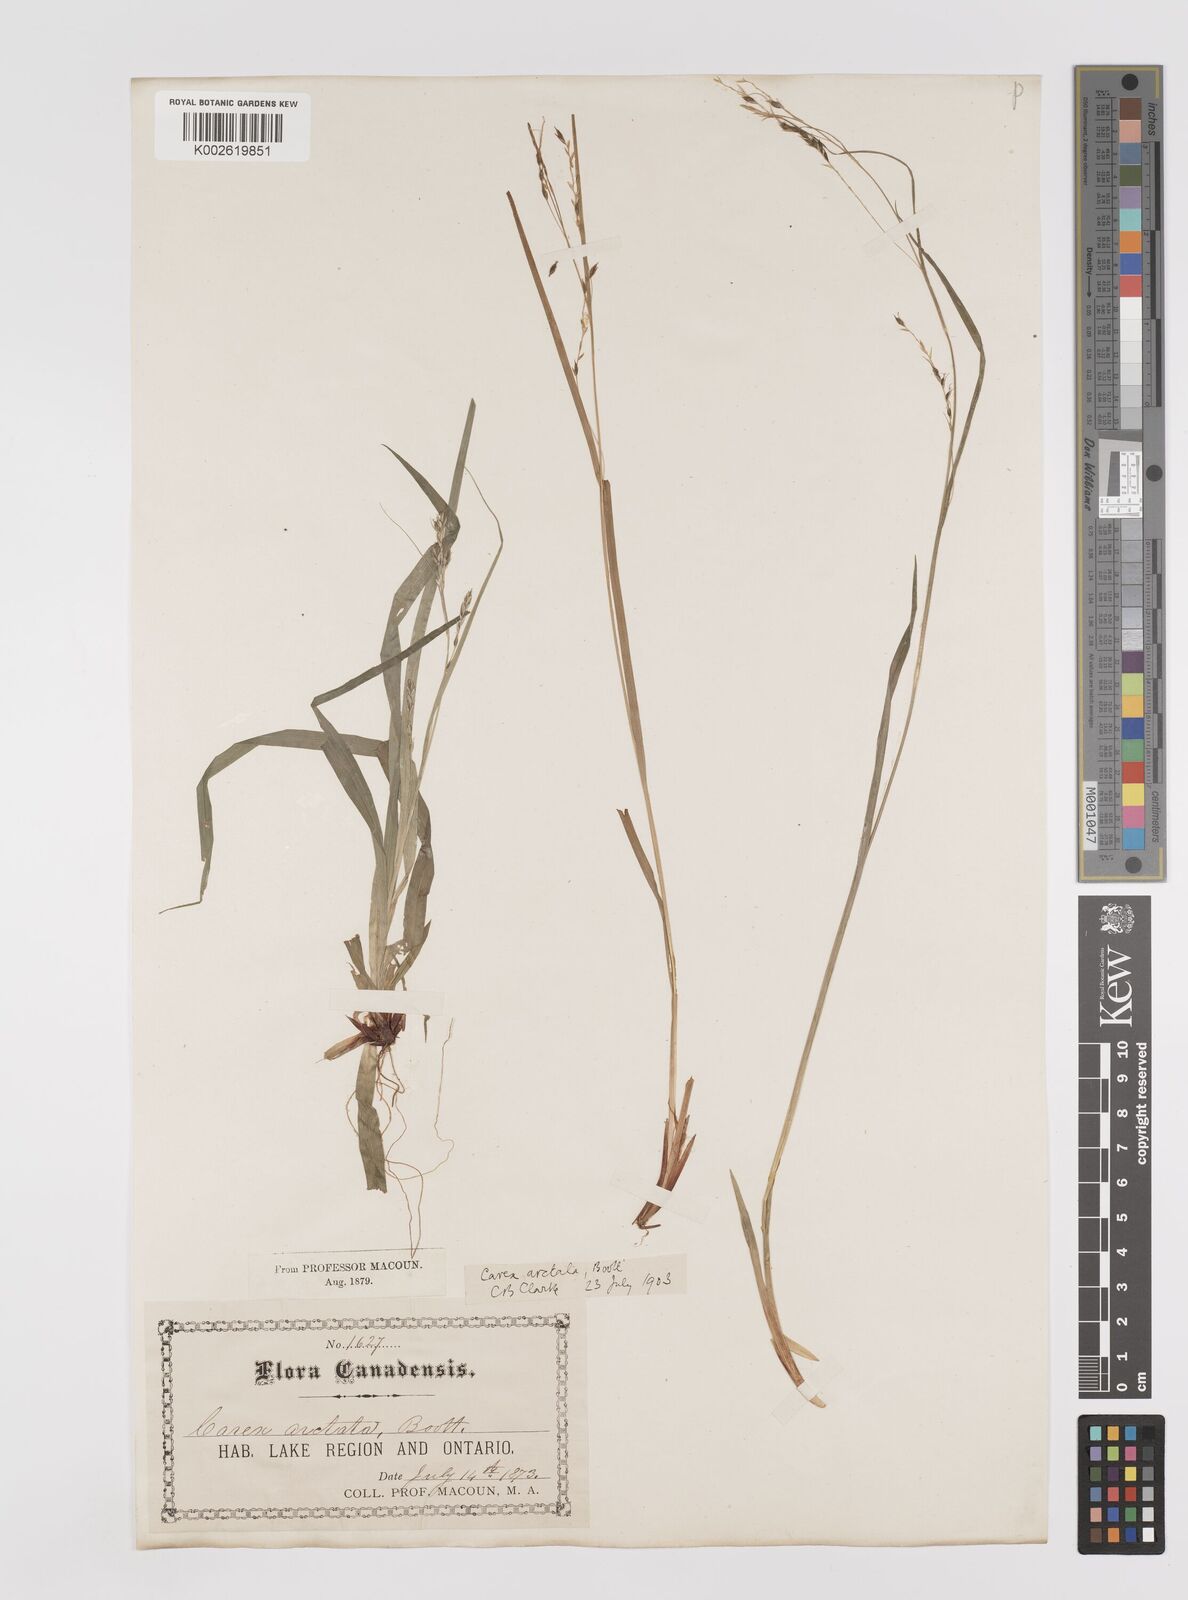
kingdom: Plantae
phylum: Tracheophyta
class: Liliopsida
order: Poales
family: Cyperaceae
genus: Carex
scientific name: Carex arctata
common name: Black sedge
